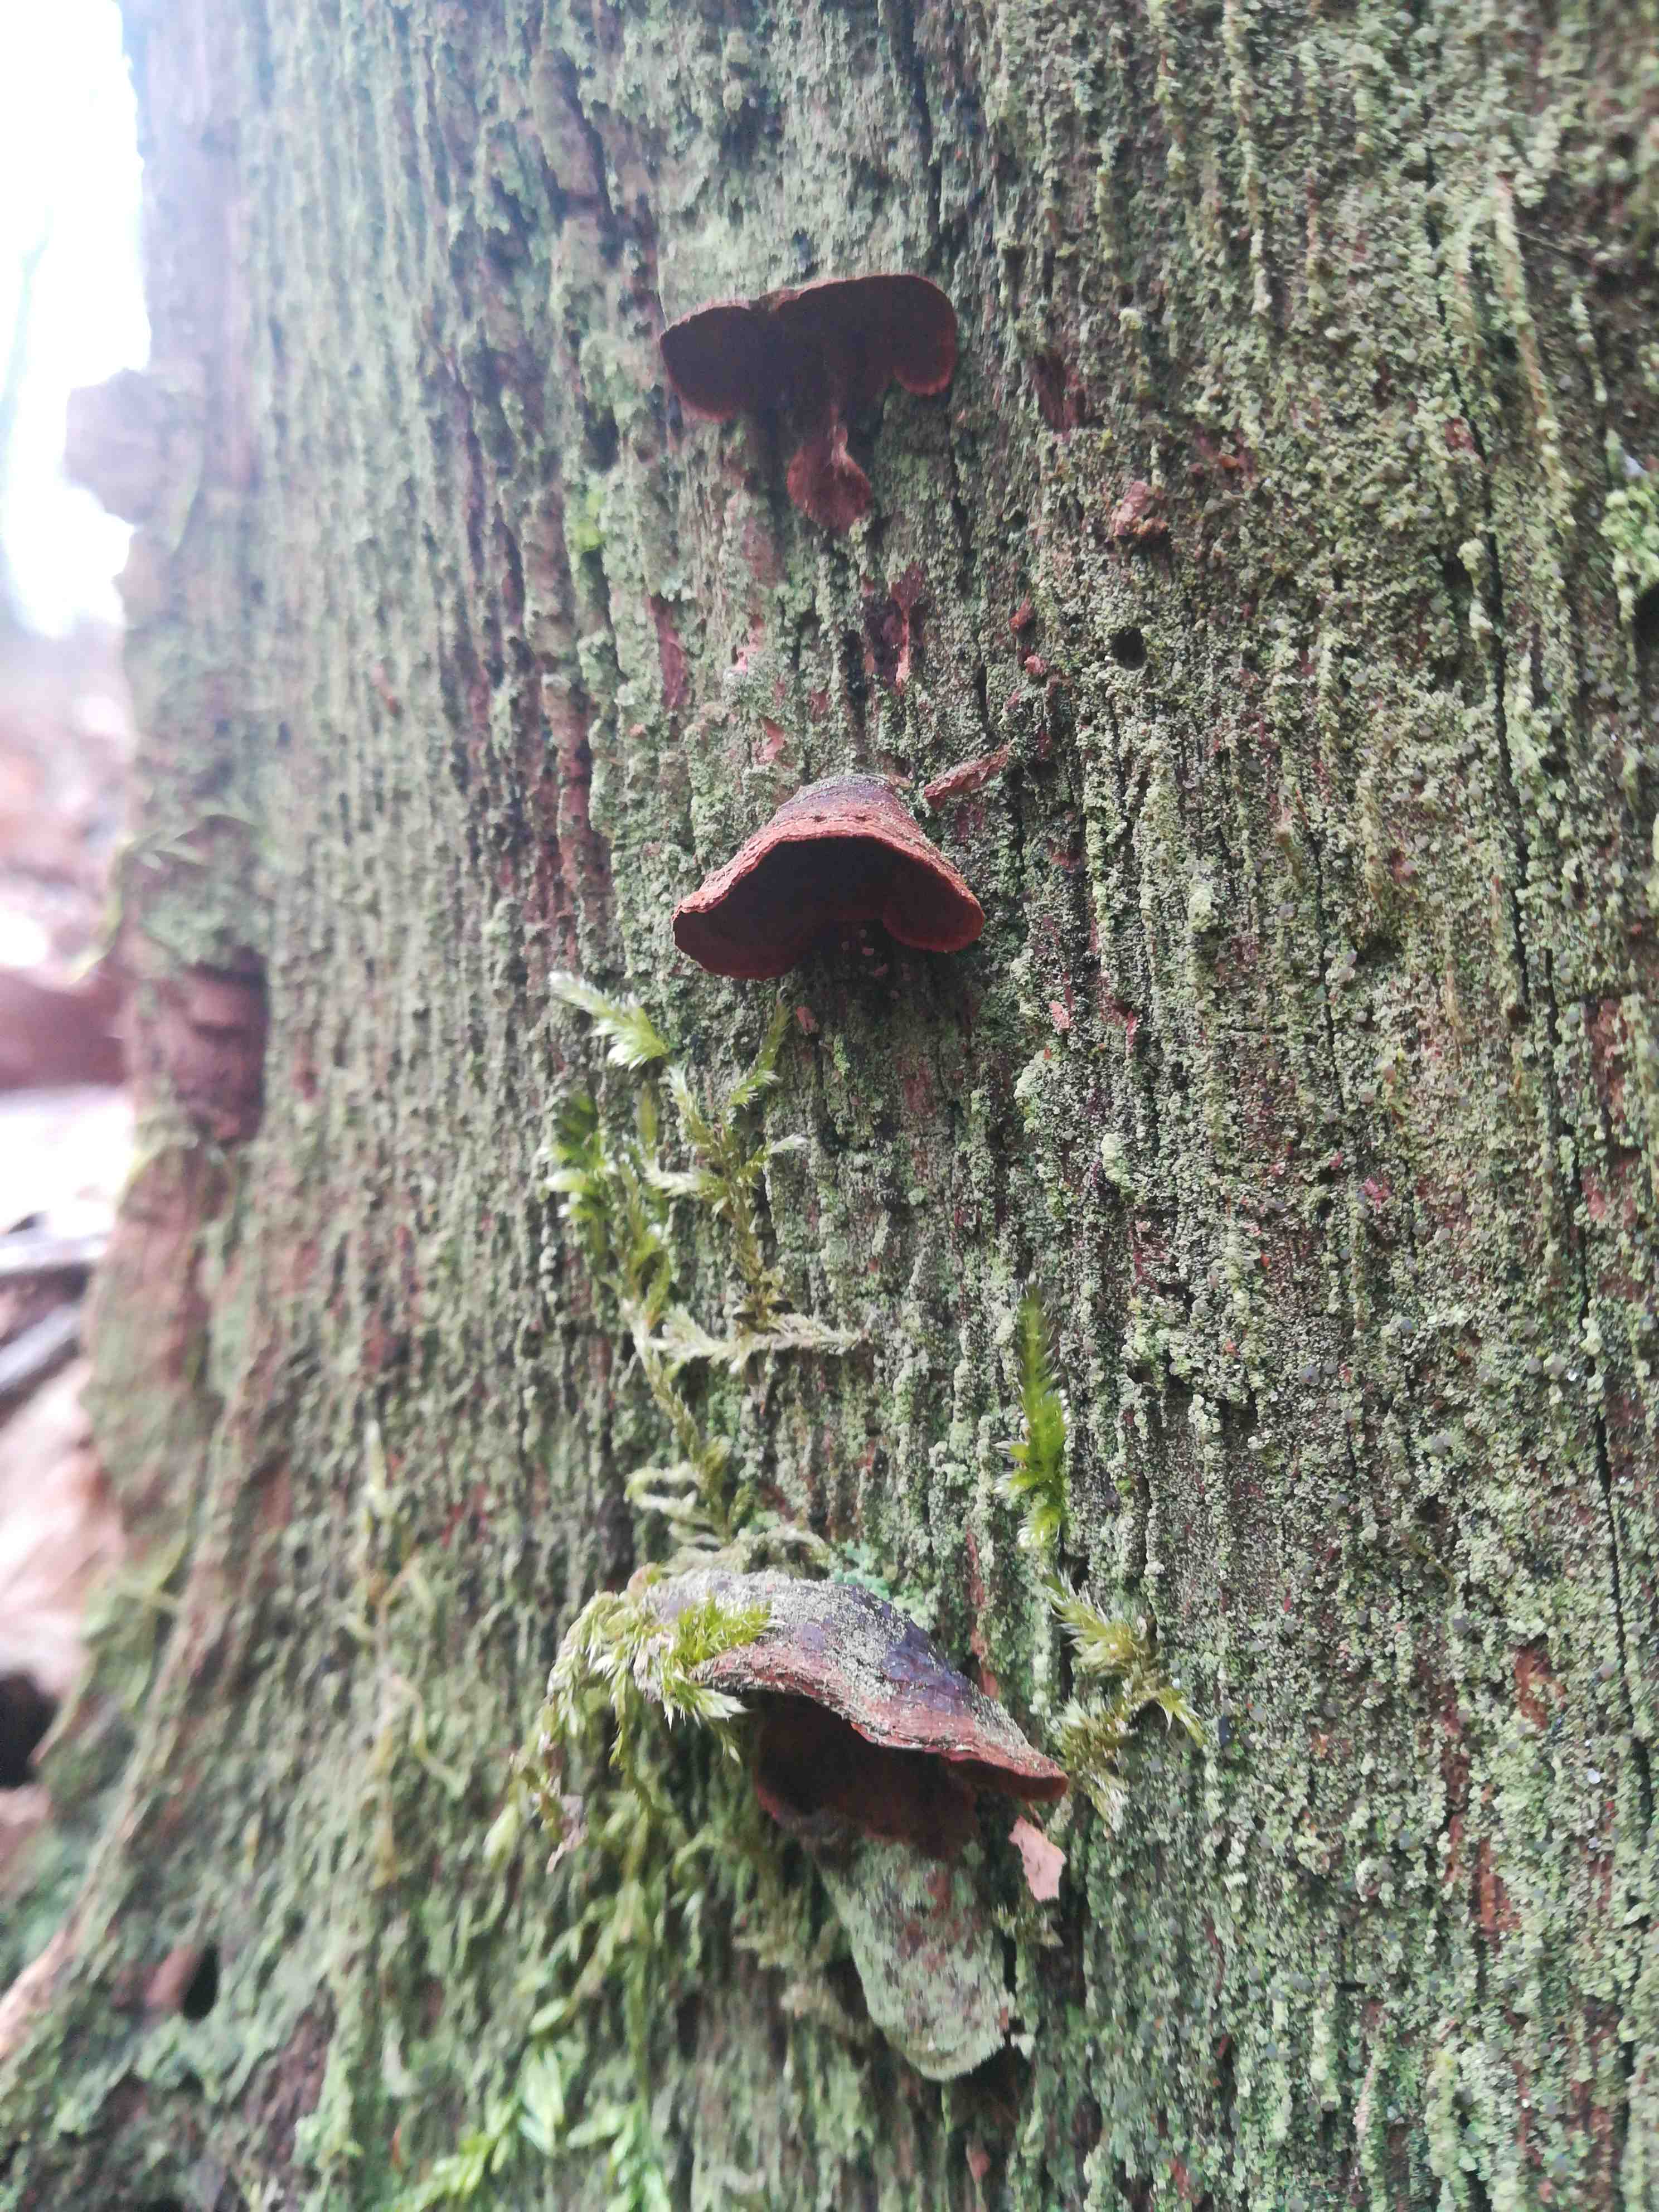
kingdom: Fungi
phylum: Basidiomycota
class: Agaricomycetes
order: Hymenochaetales
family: Hymenochaetaceae
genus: Hymenochaete
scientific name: Hymenochaete rubiginosa
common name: stiv ruslædersvamp
